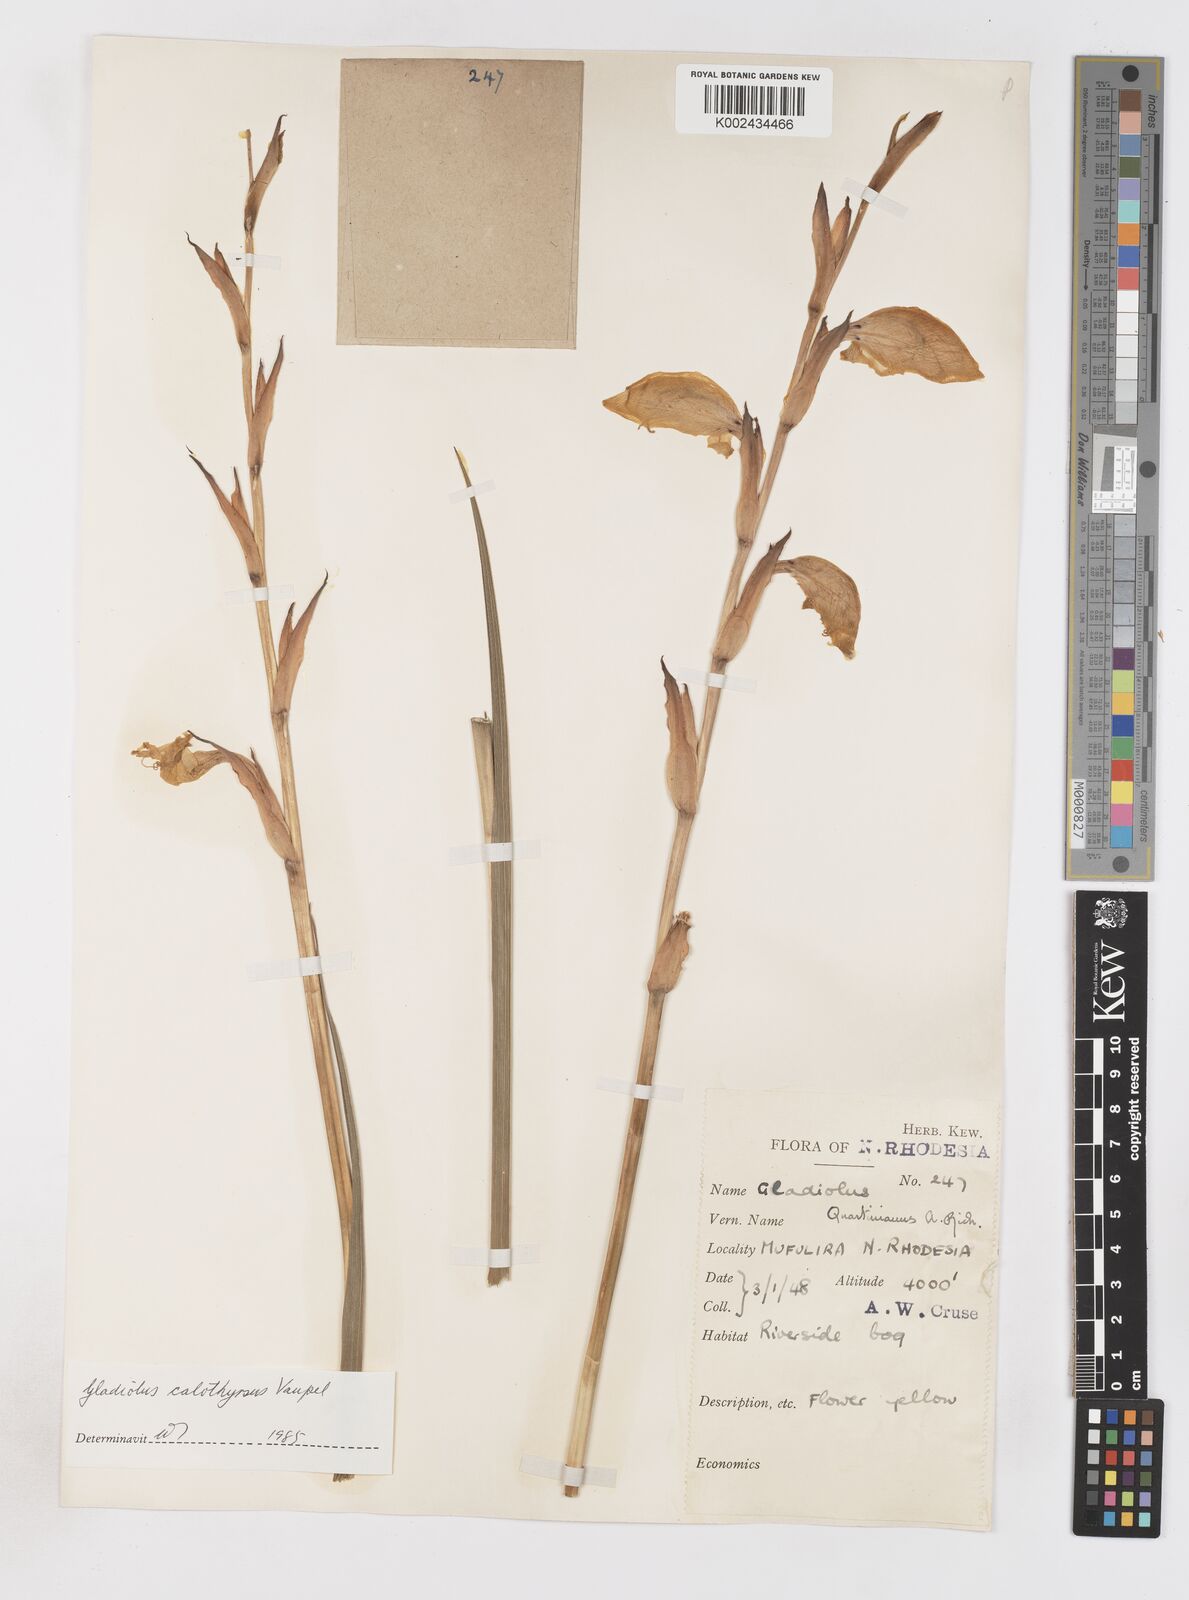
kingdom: Plantae
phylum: Tracheophyta
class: Liliopsida
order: Asparagales
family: Iridaceae
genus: Gladiolus
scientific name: Gladiolus dalenii
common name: Cornflag
